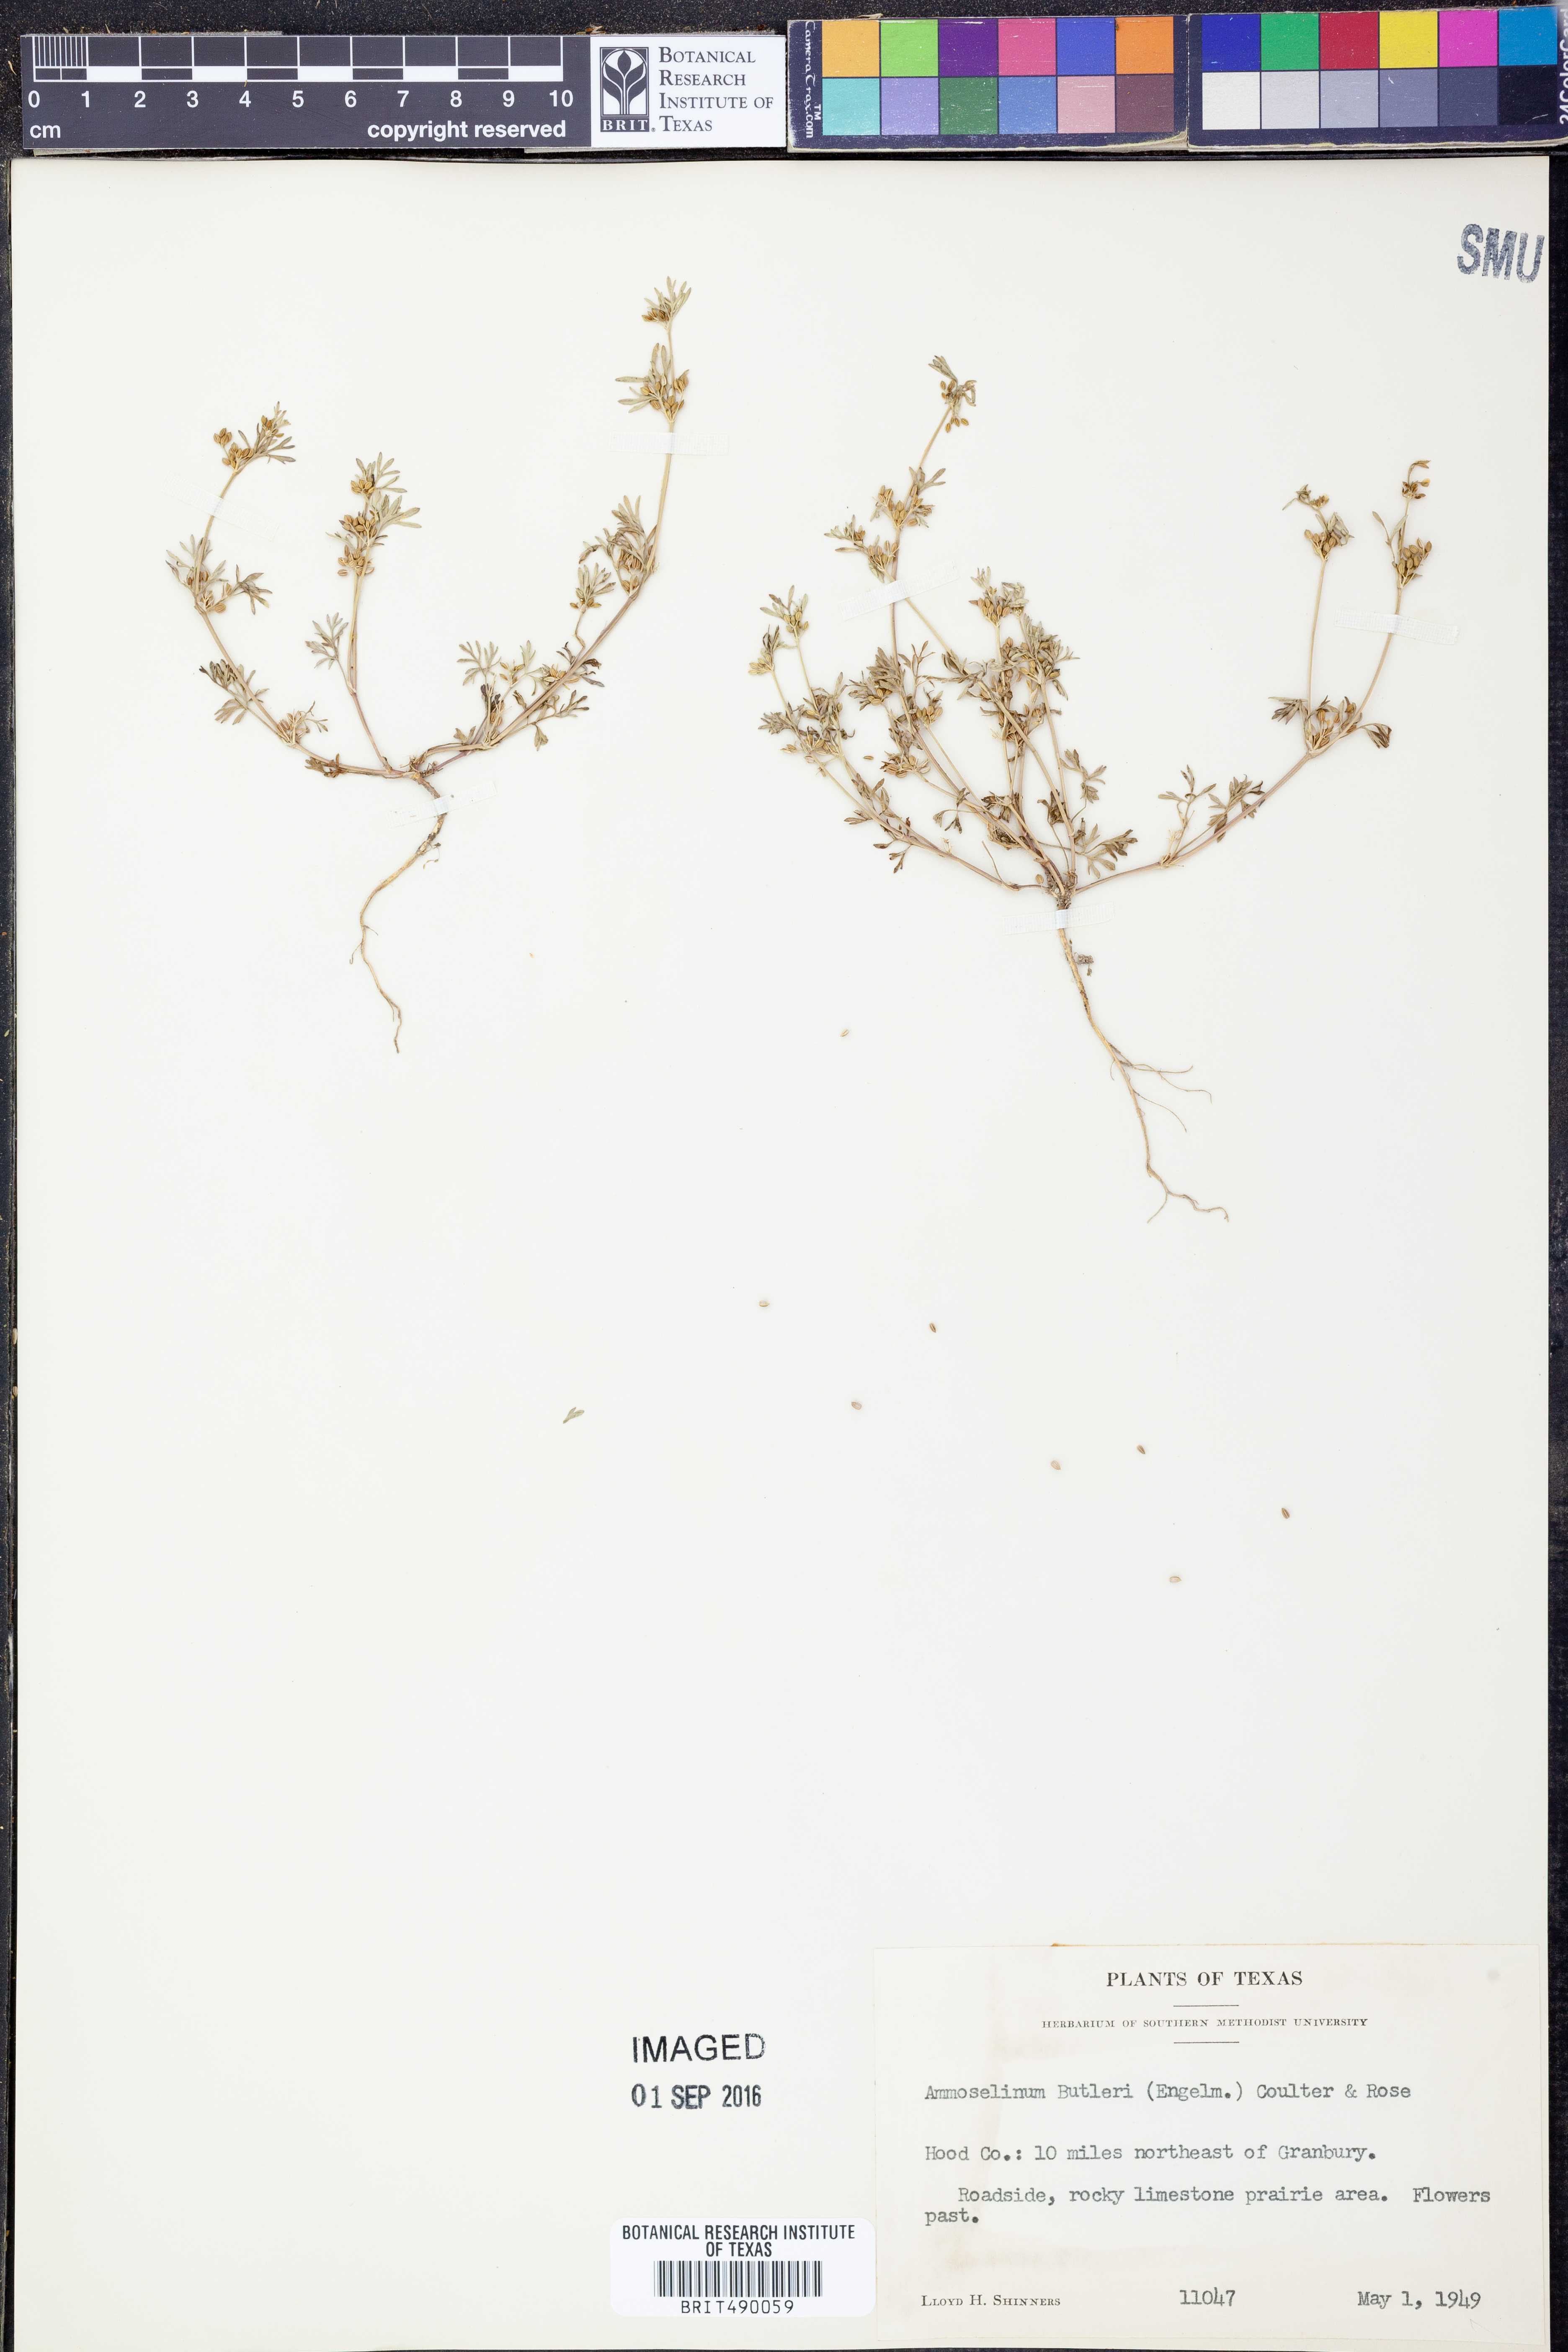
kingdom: Plantae
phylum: Tracheophyta
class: Magnoliopsida
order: Apiales
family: Apiaceae
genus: Ammoselinum
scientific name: Ammoselinum butleri
